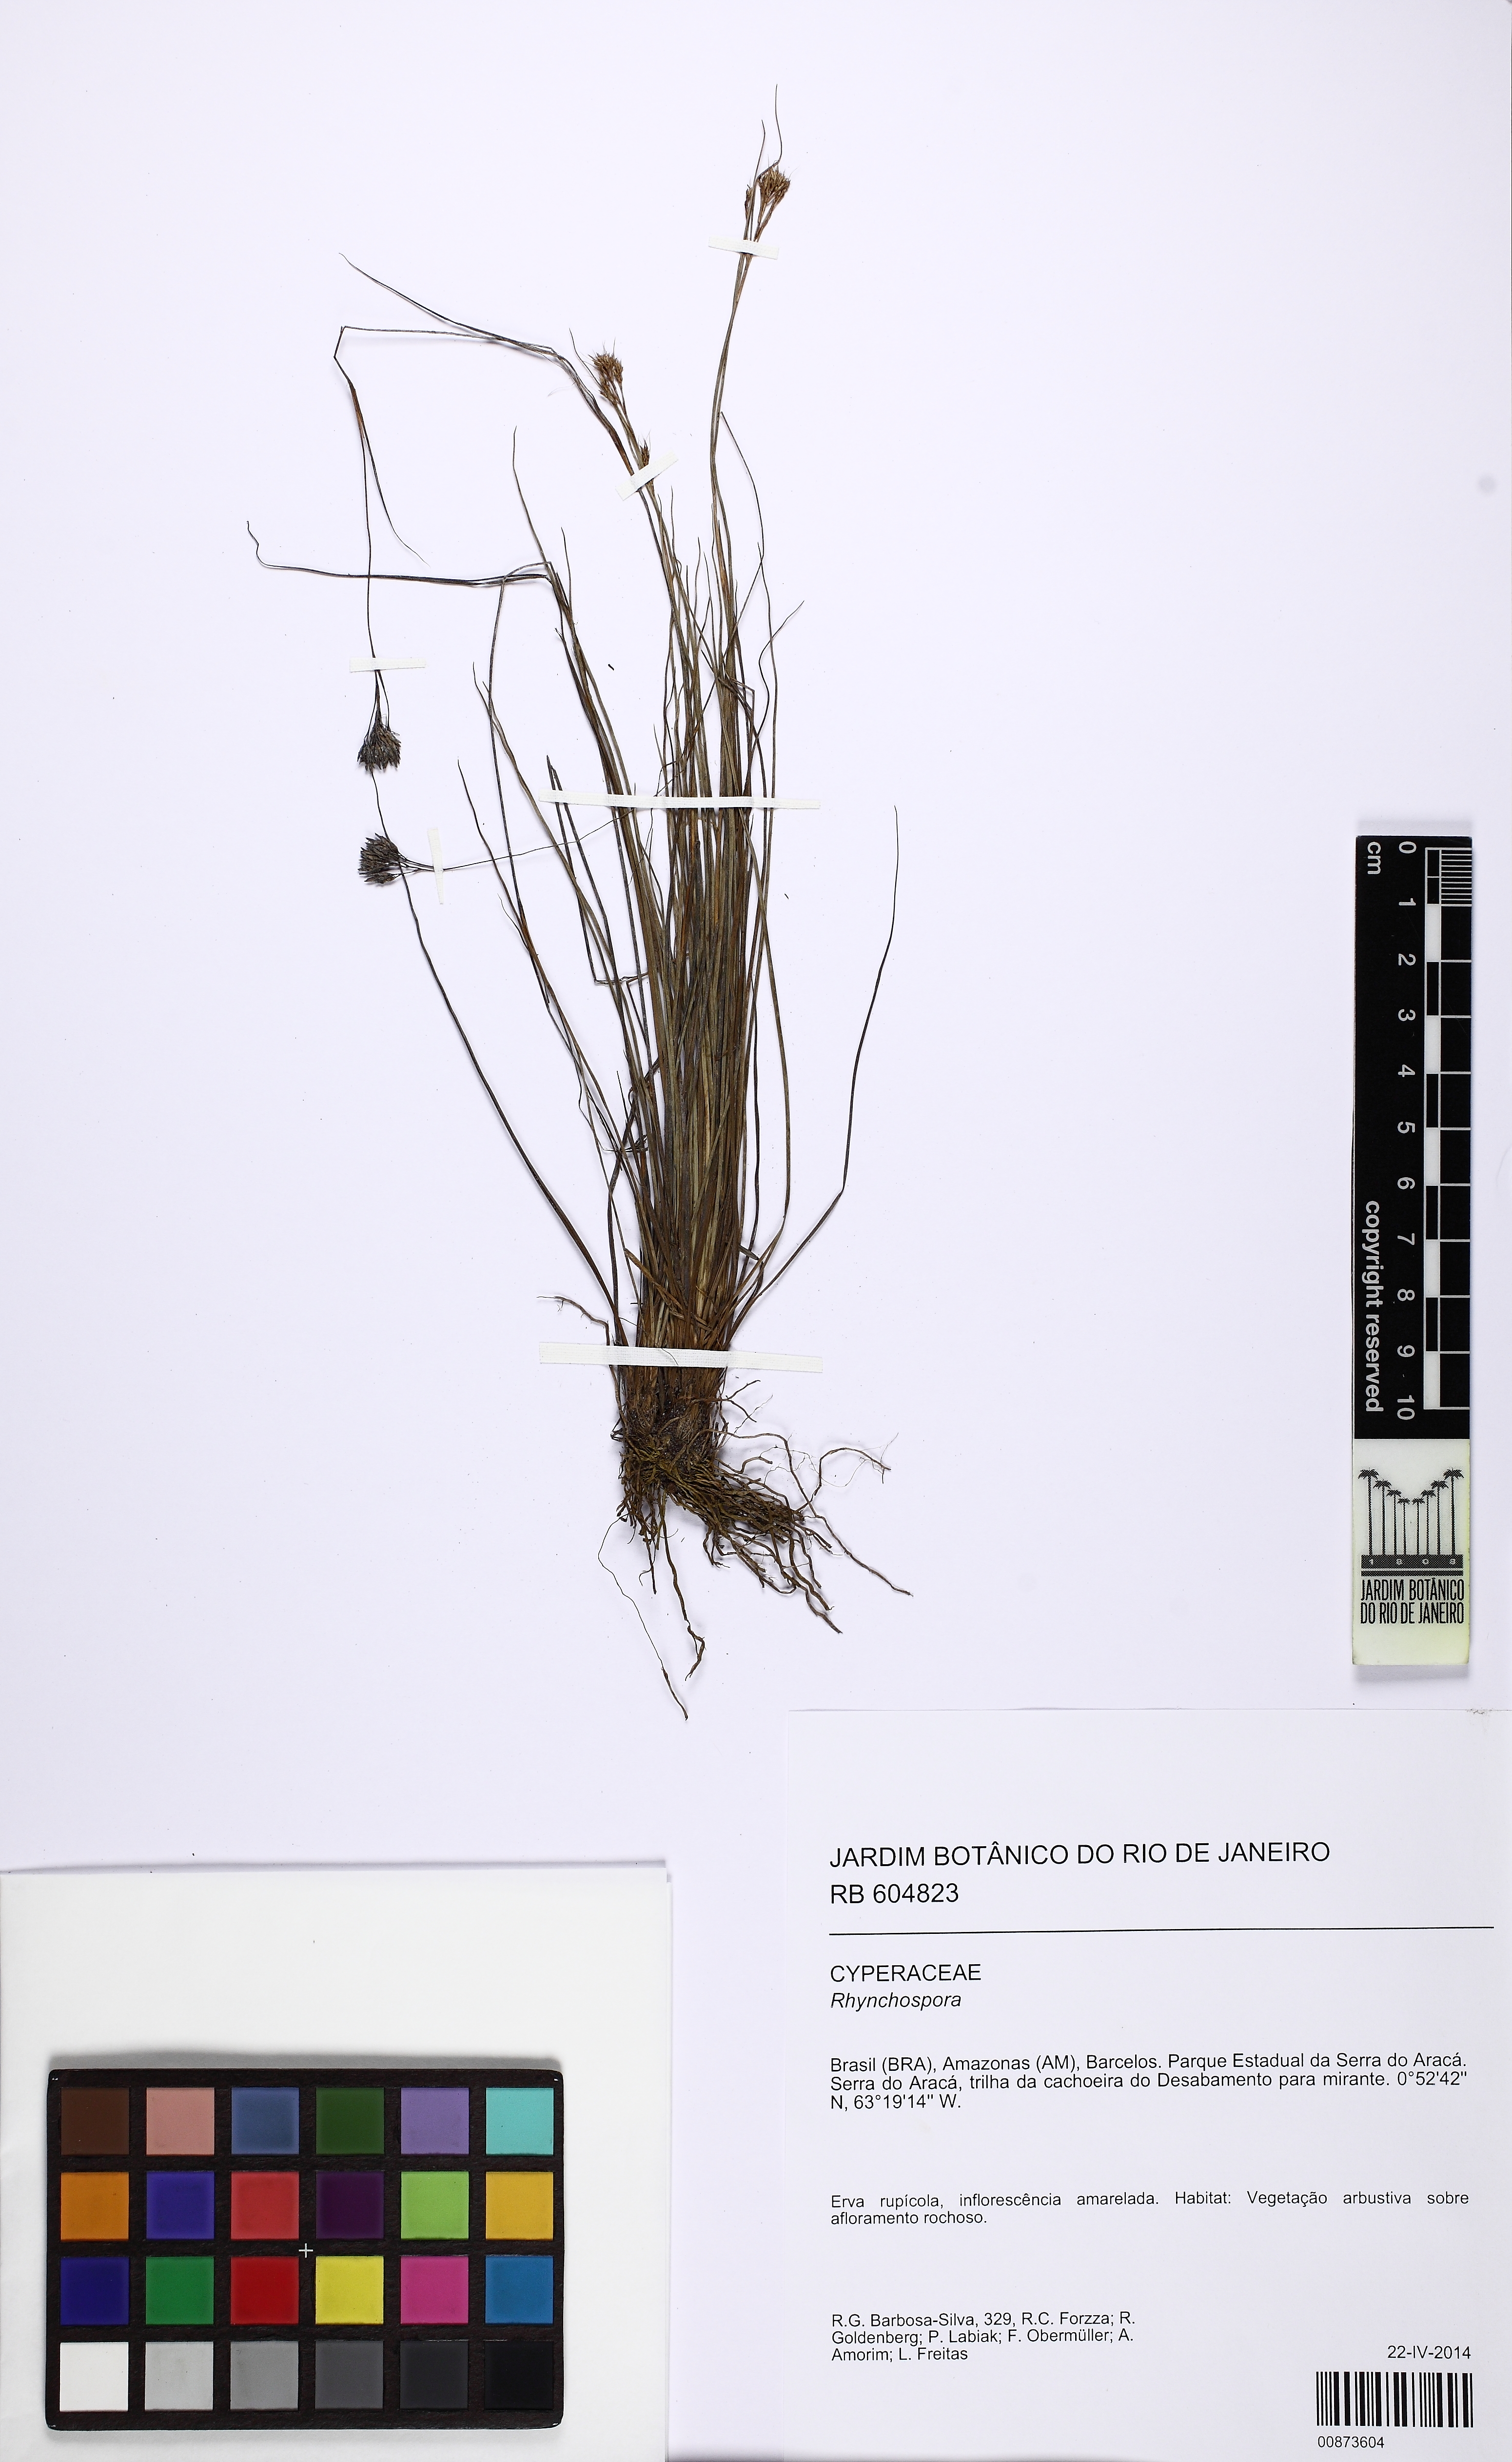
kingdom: Plantae
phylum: Tracheophyta
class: Liliopsida
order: Poales
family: Cyperaceae
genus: Rhynchospora
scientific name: Rhynchospora albida
